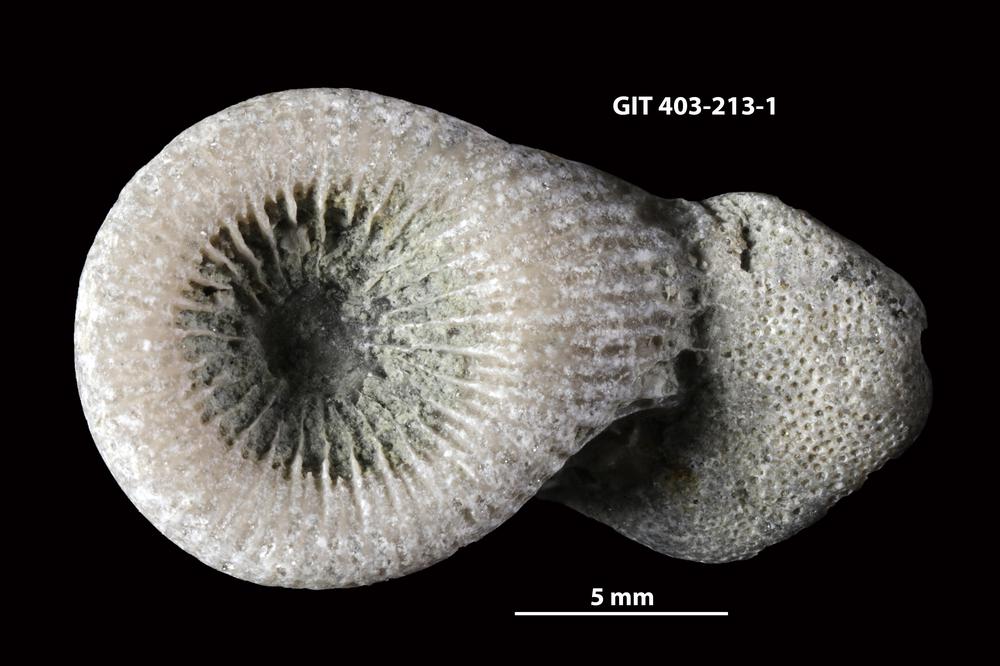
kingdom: Animalia
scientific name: Animalia
